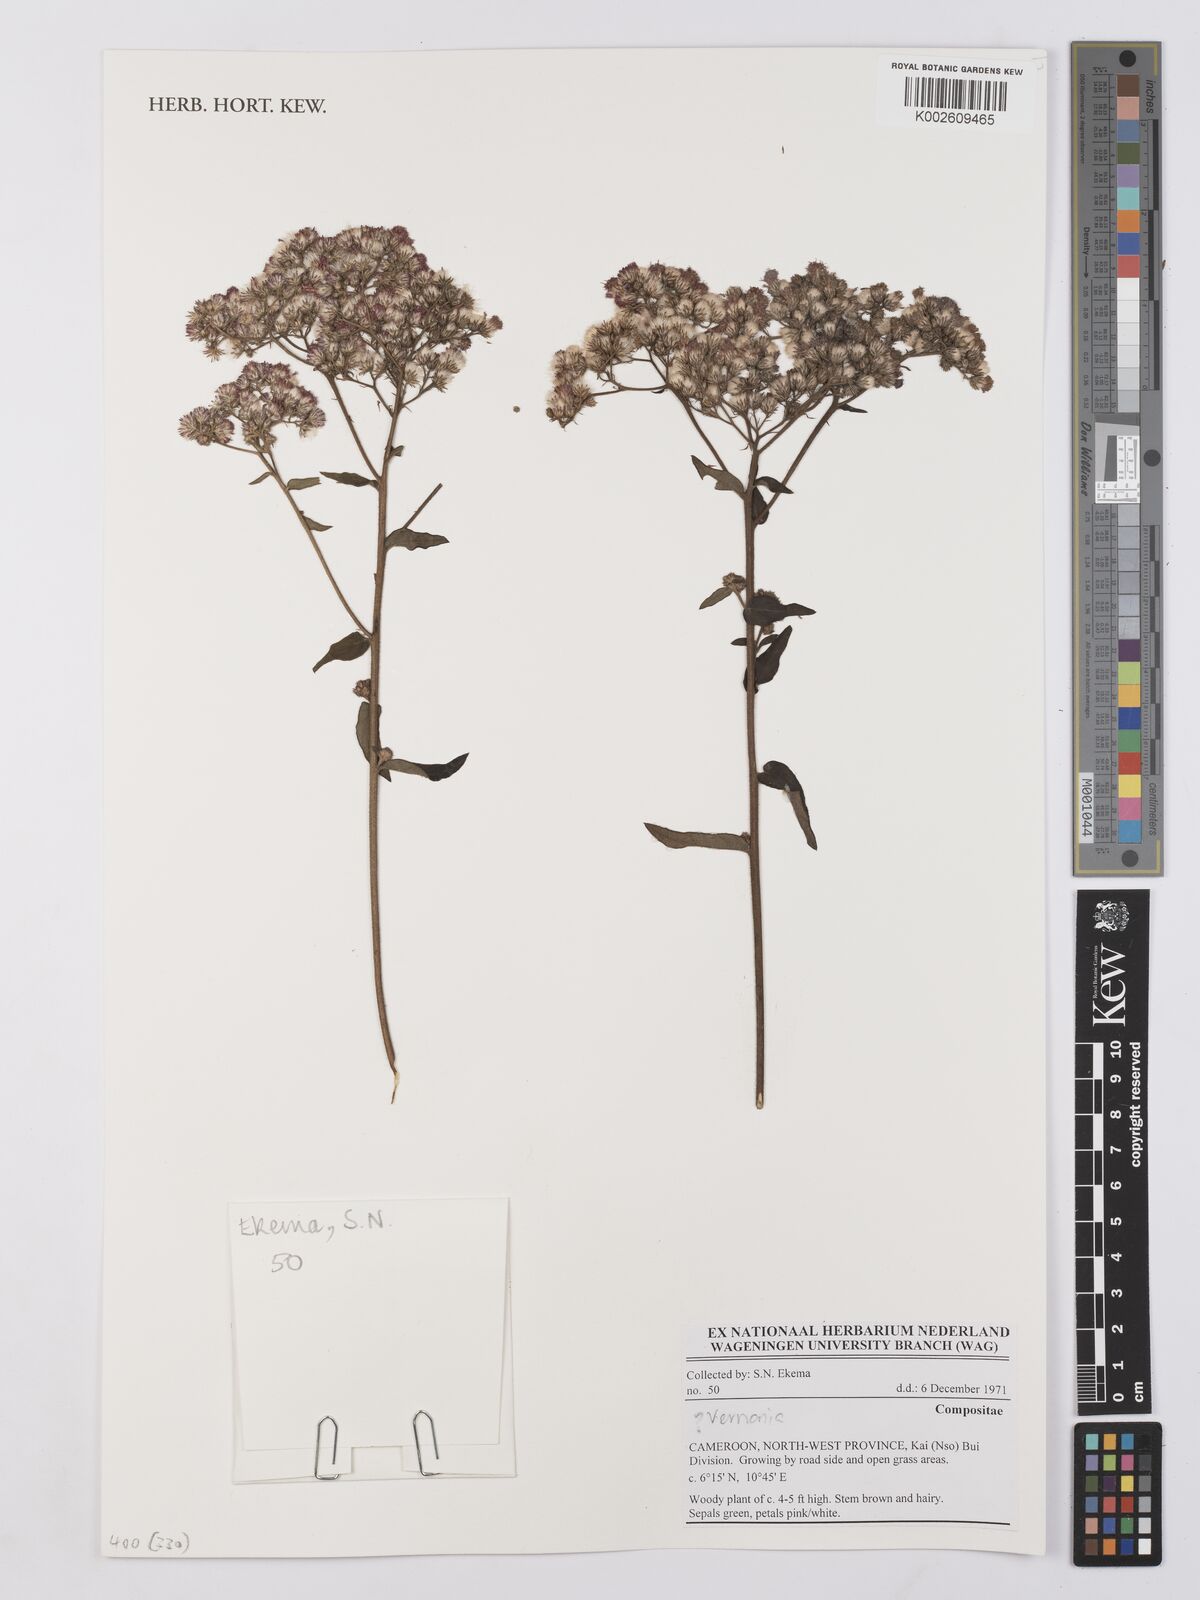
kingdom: Plantae
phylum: Tracheophyta
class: Magnoliopsida
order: Asterales
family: Asteraceae
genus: Vernonia
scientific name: Vernonia
